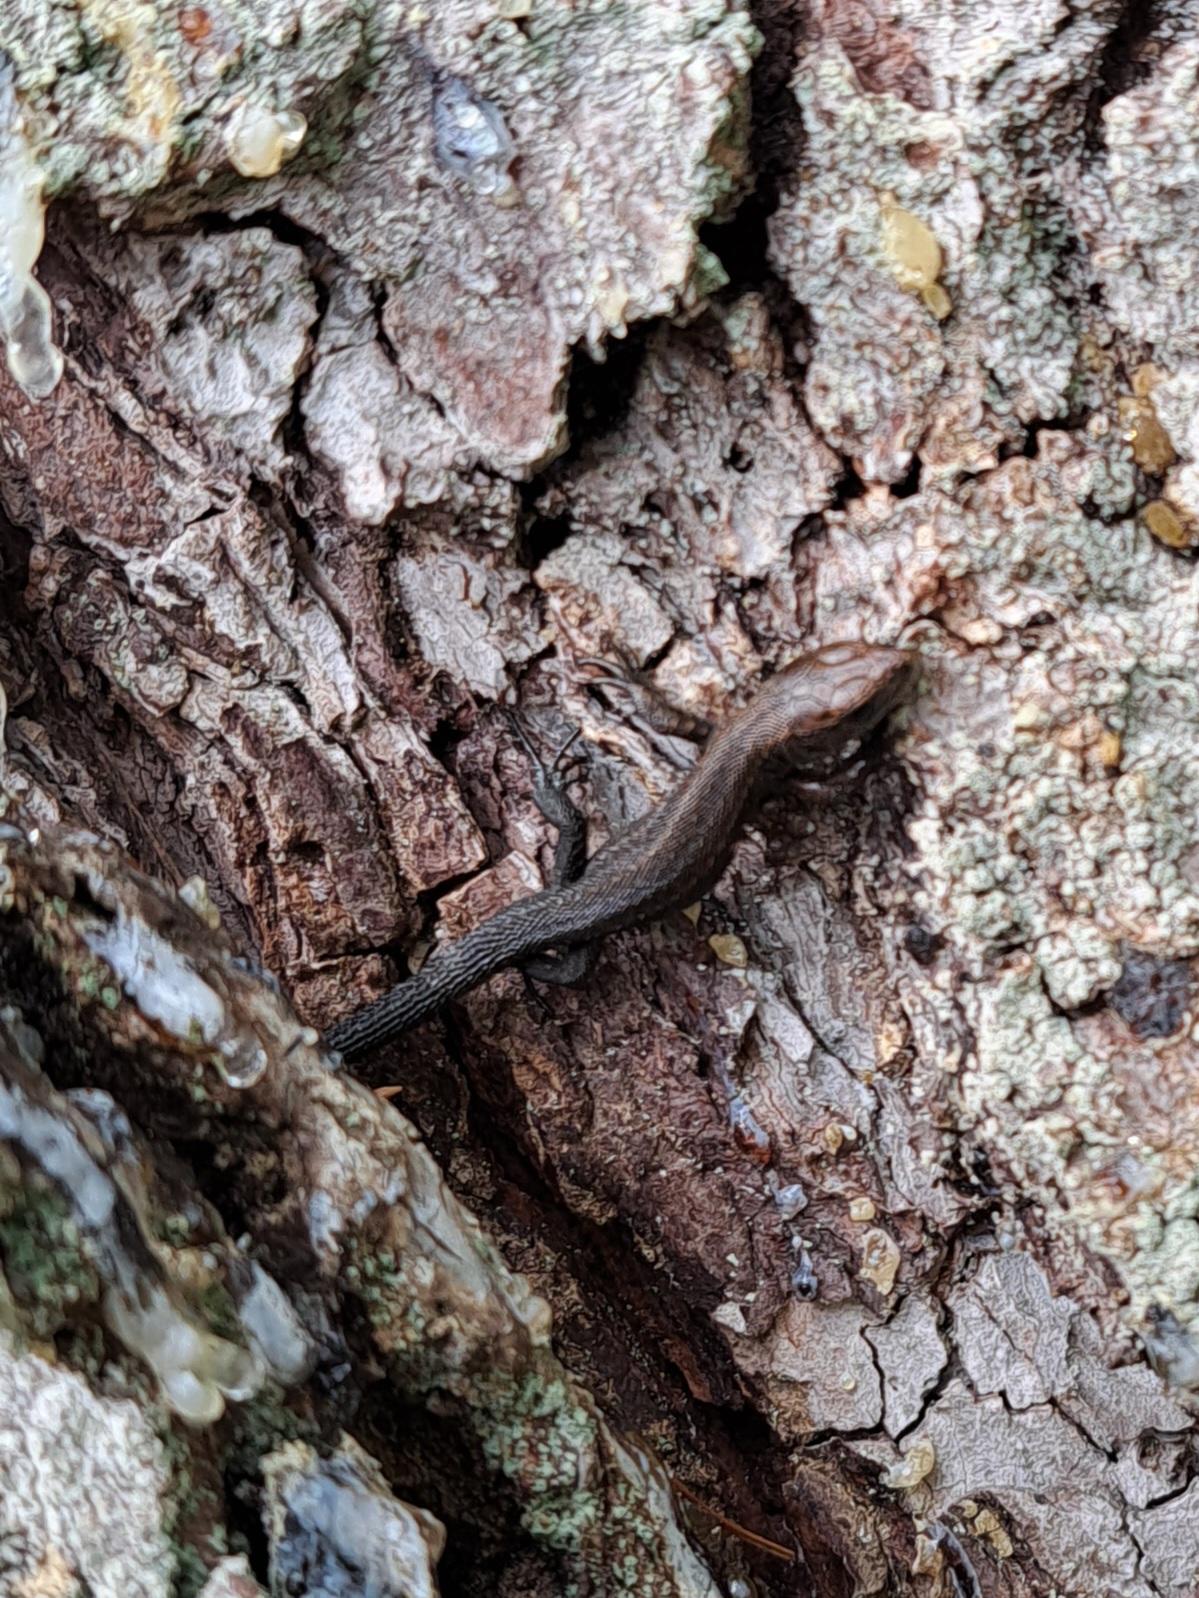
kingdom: Animalia
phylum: Chordata
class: Squamata
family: Lacertidae
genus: Zootoca
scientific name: Zootoca vivipara
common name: Skovfirben
